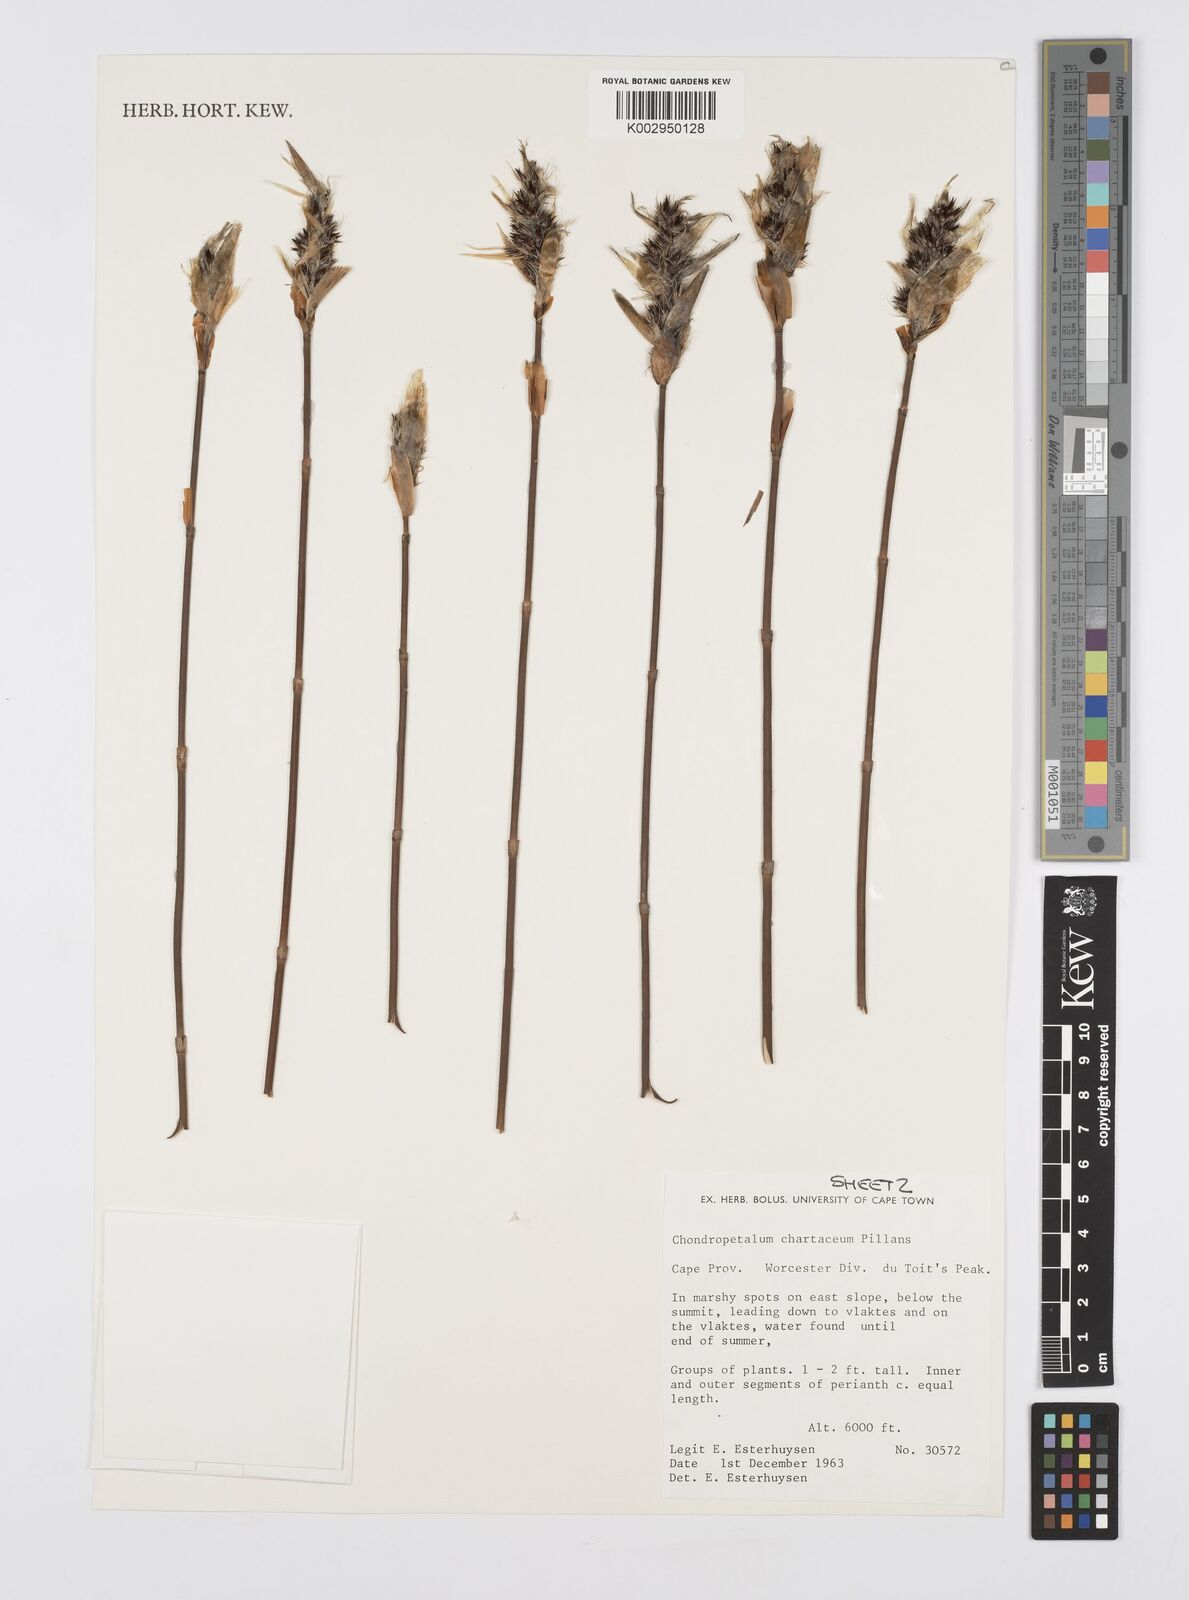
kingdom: Plantae
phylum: Tracheophyta
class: Liliopsida
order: Poales
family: Restionaceae
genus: Askidiosperma
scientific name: Askidiosperma chartaceum
